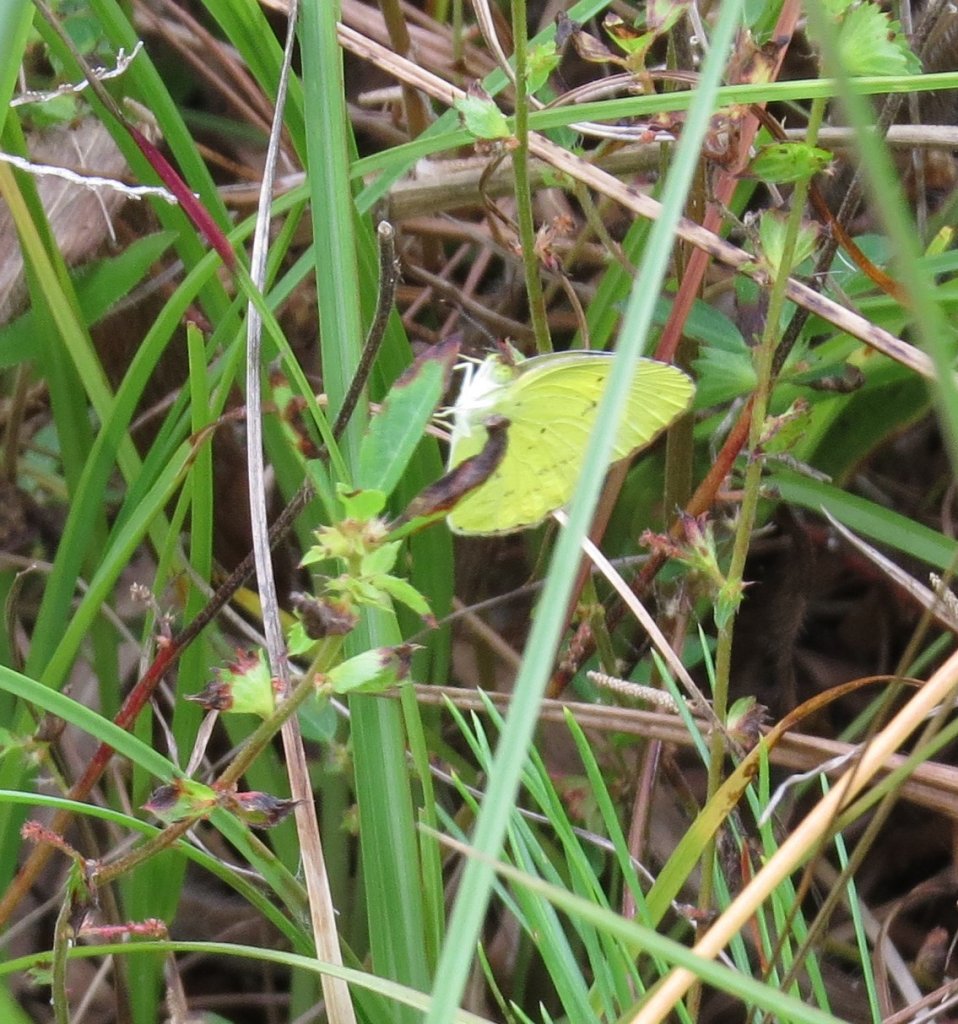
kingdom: Animalia
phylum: Arthropoda
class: Insecta
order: Lepidoptera
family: Pieridae
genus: Phoebis
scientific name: Phoebis sennae
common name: Cloudless Sulphur
